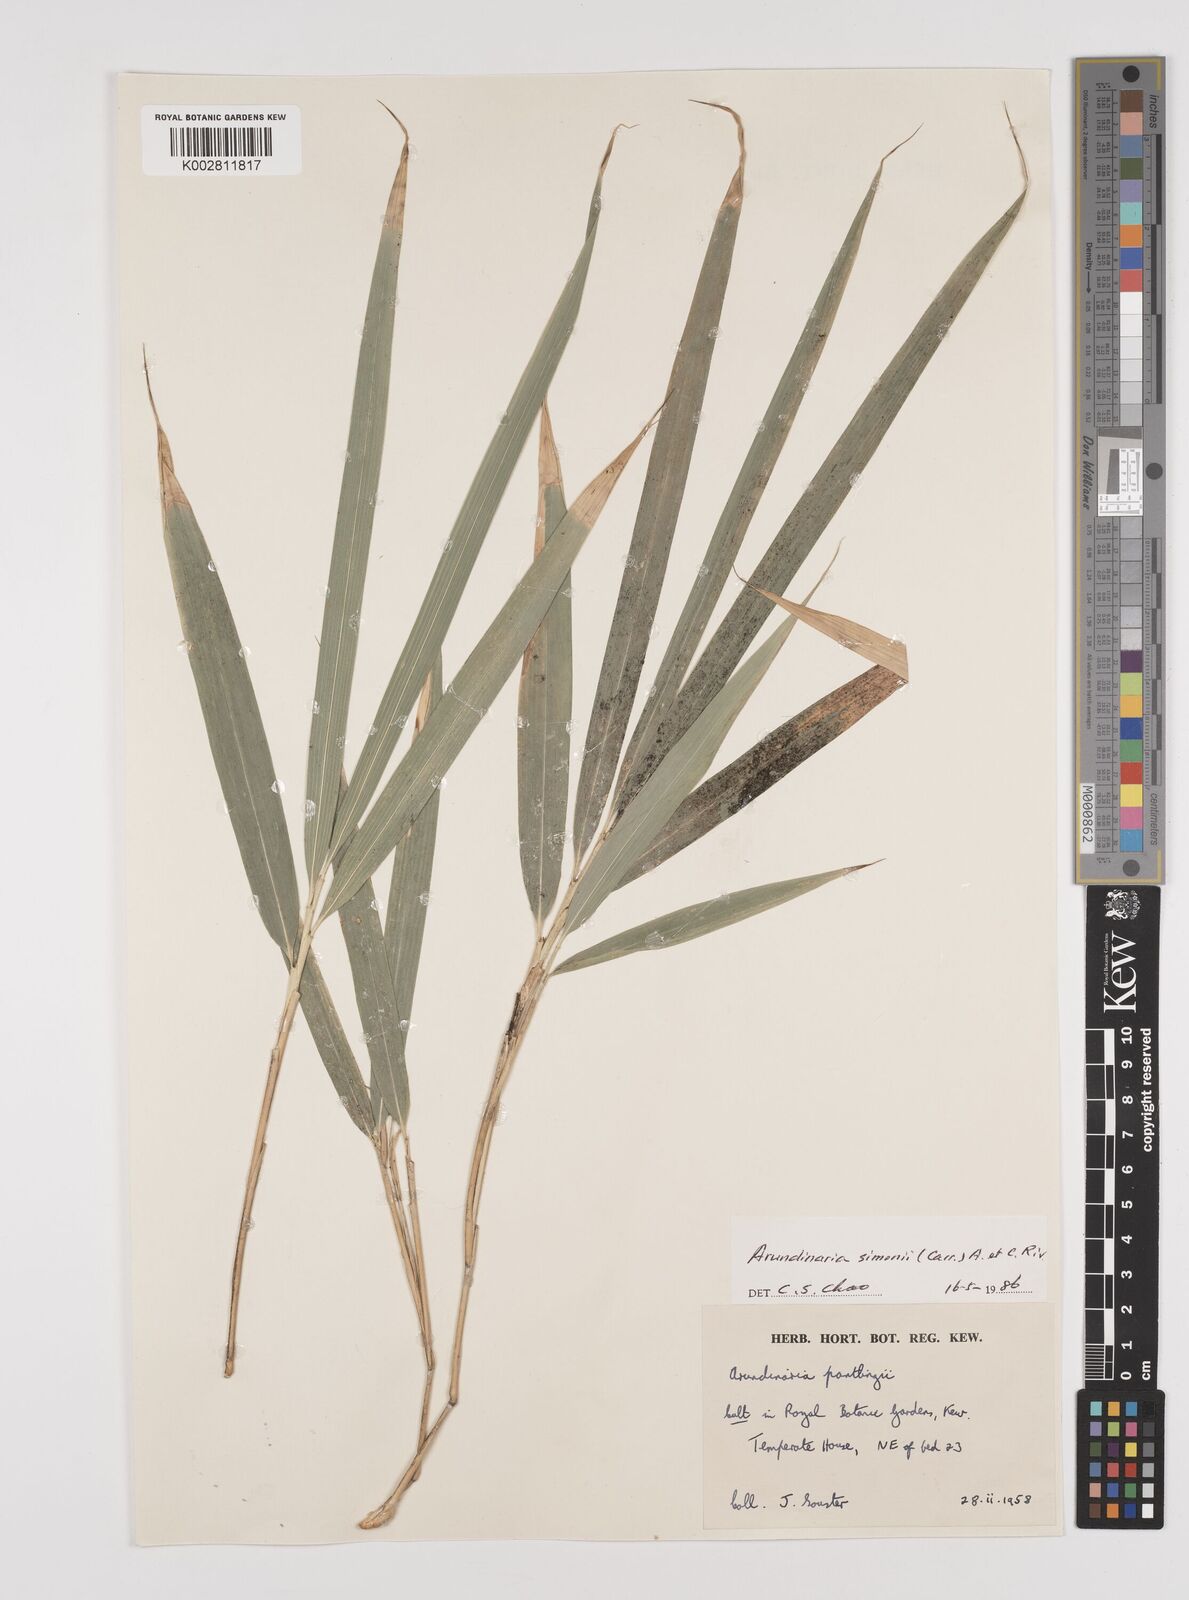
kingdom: Plantae
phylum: Tracheophyta
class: Liliopsida
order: Poales
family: Poaceae
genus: Pleioblastus
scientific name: Pleioblastus simonii
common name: Simon bamboo
